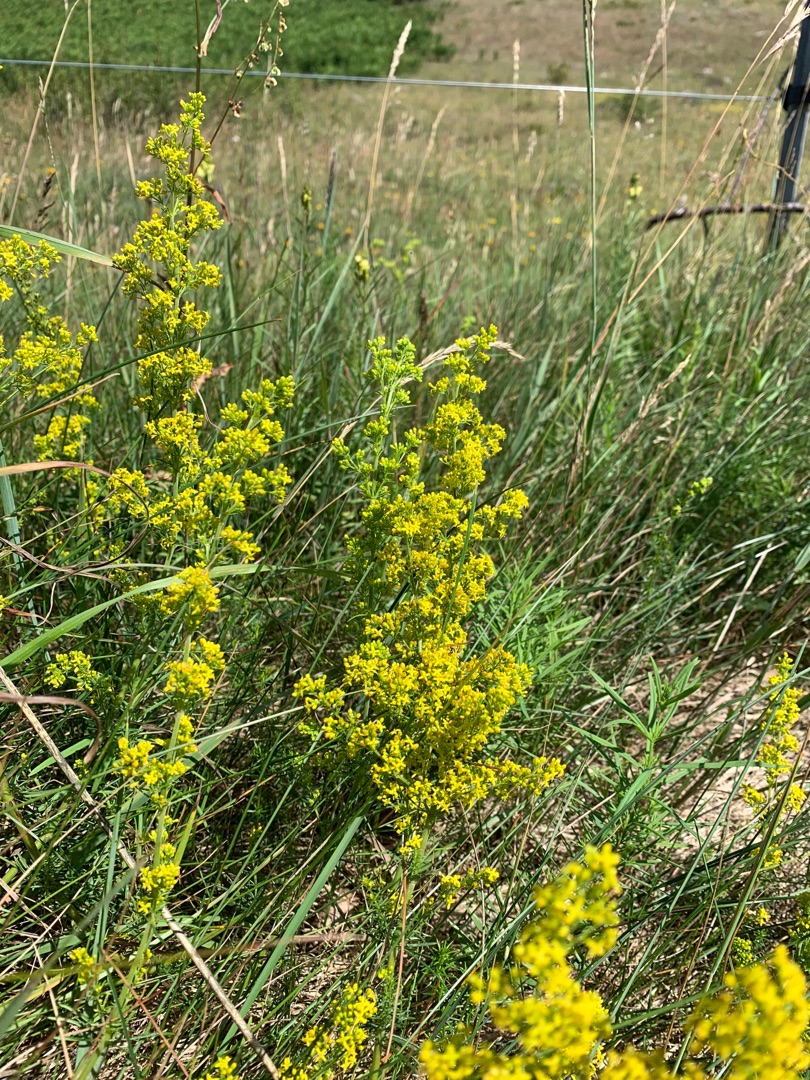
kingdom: Plantae
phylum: Tracheophyta
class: Magnoliopsida
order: Gentianales
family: Rubiaceae
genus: Galium
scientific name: Galium verum
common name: Gul snerre
